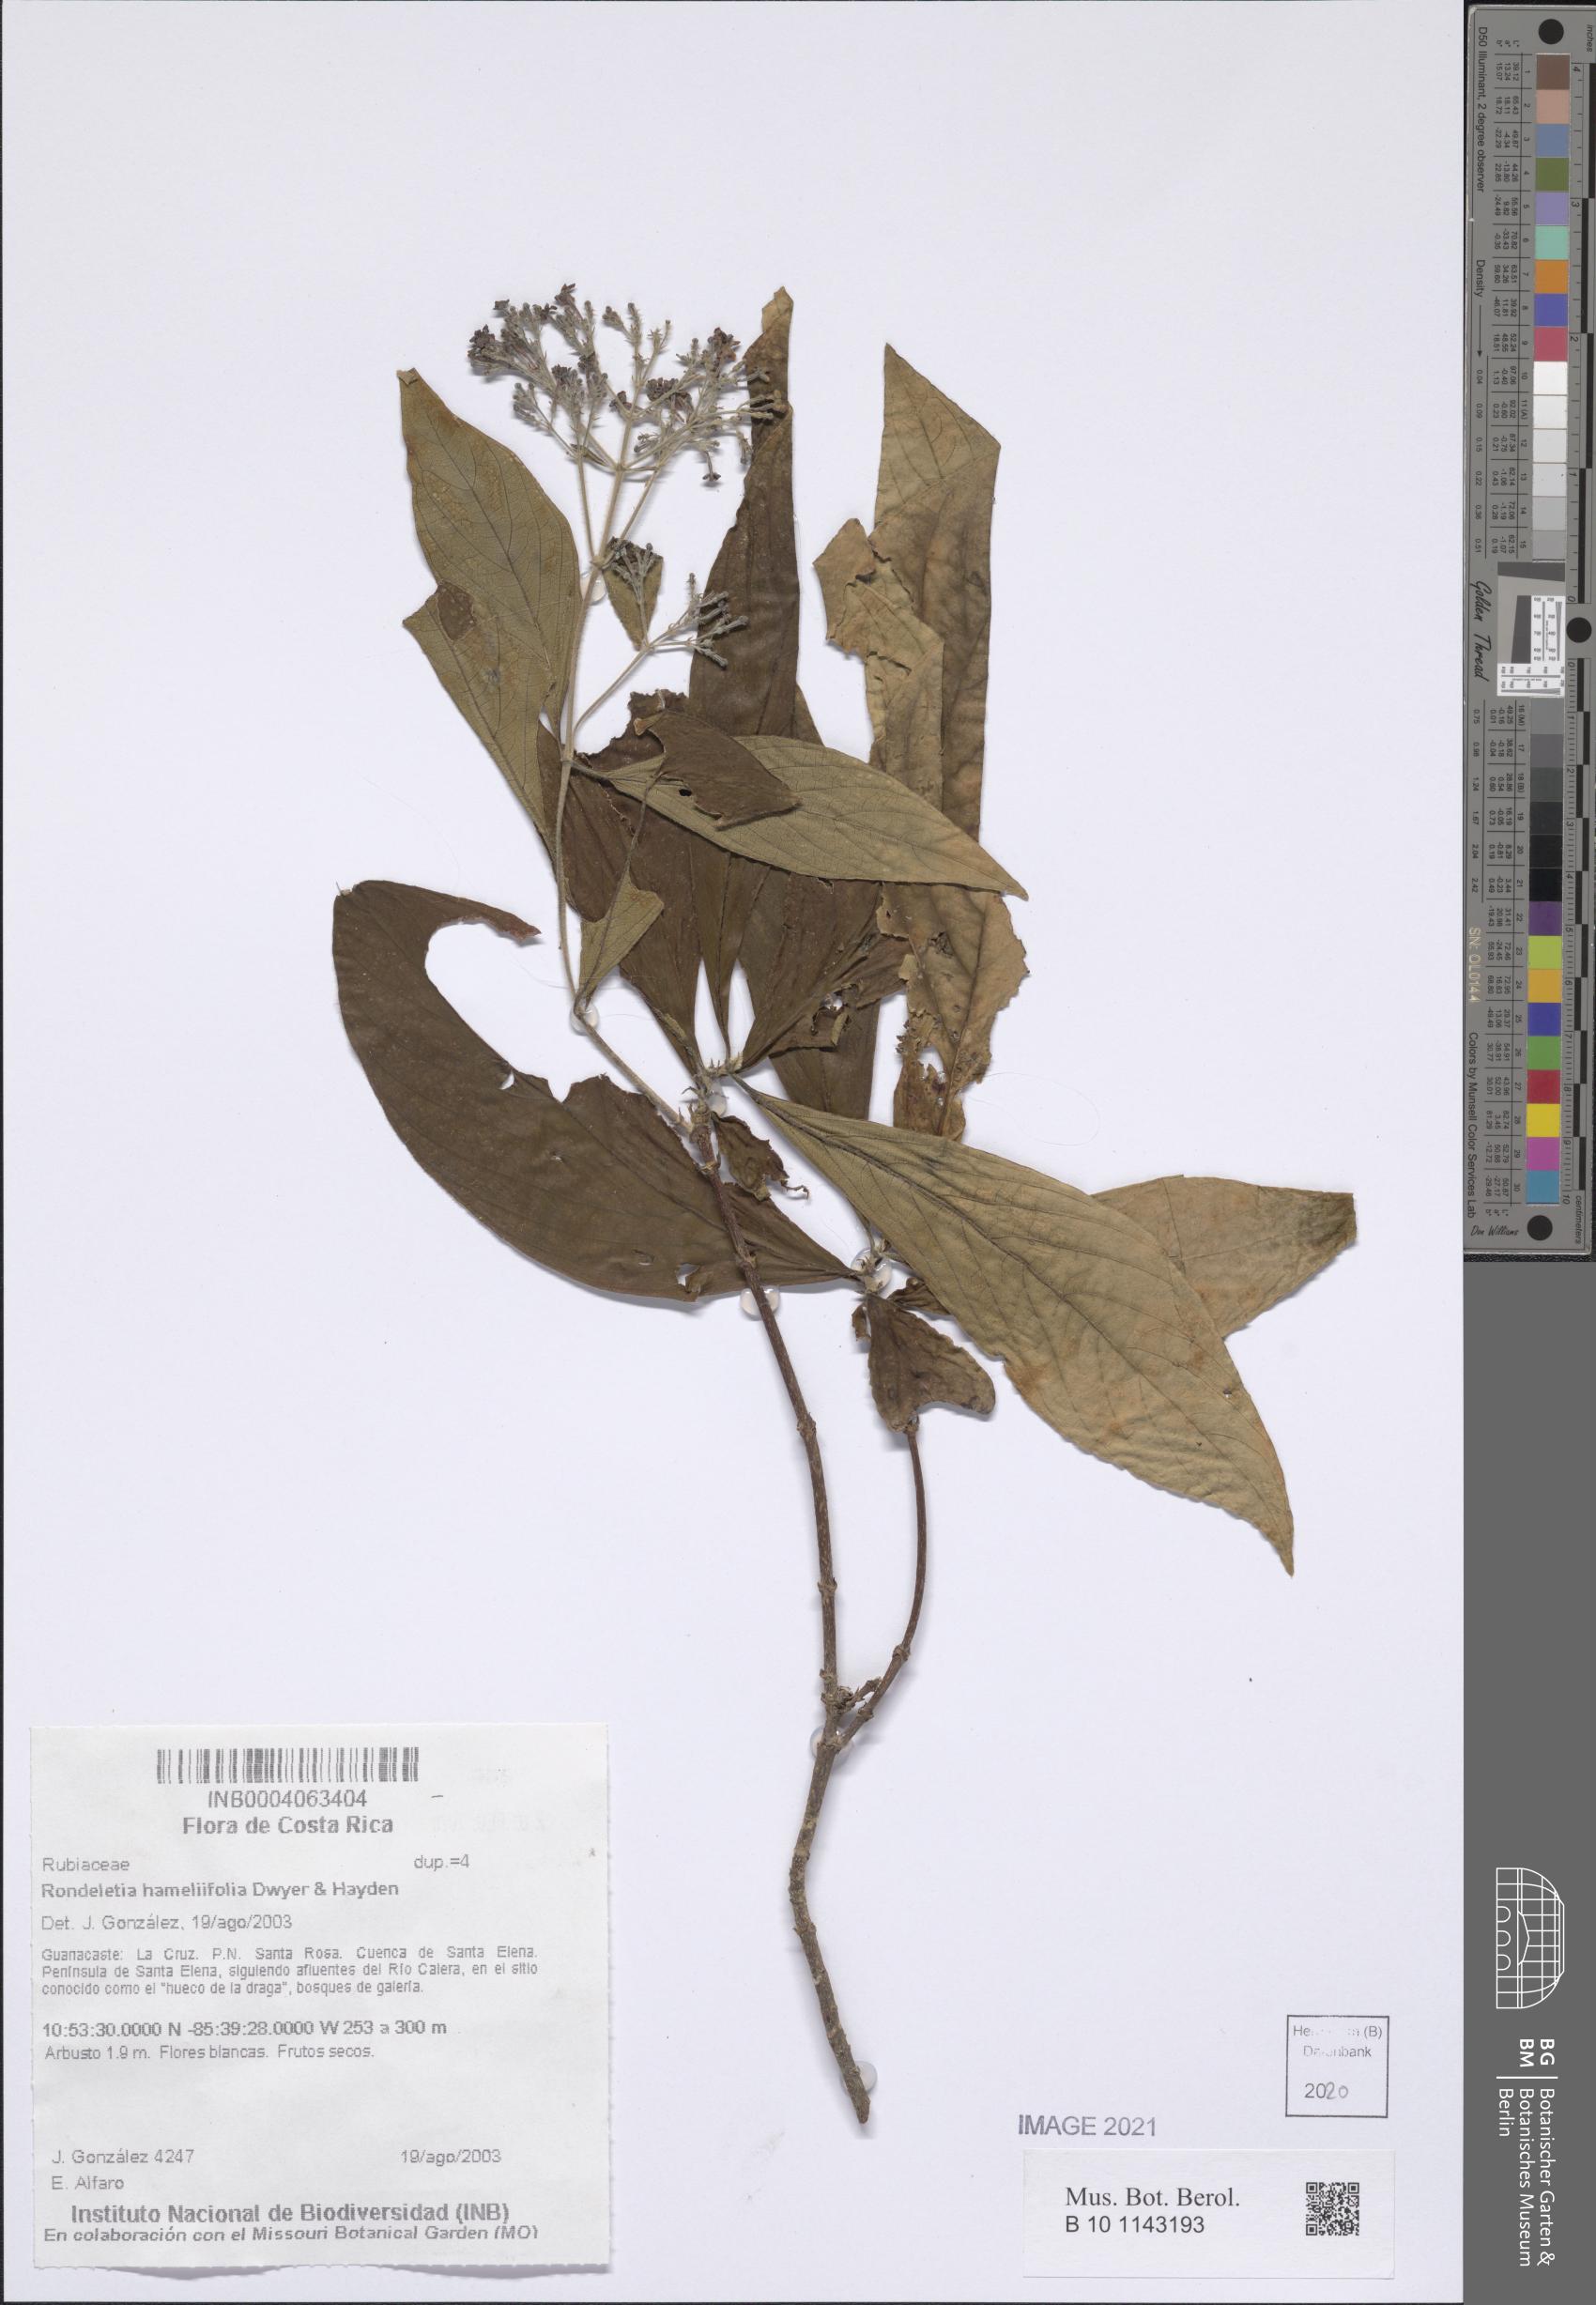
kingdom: Plantae
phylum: Tracheophyta
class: Magnoliopsida
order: Gentianales
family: Rubiaceae
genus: Rondeletia
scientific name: Rondeletia hameliifolia
